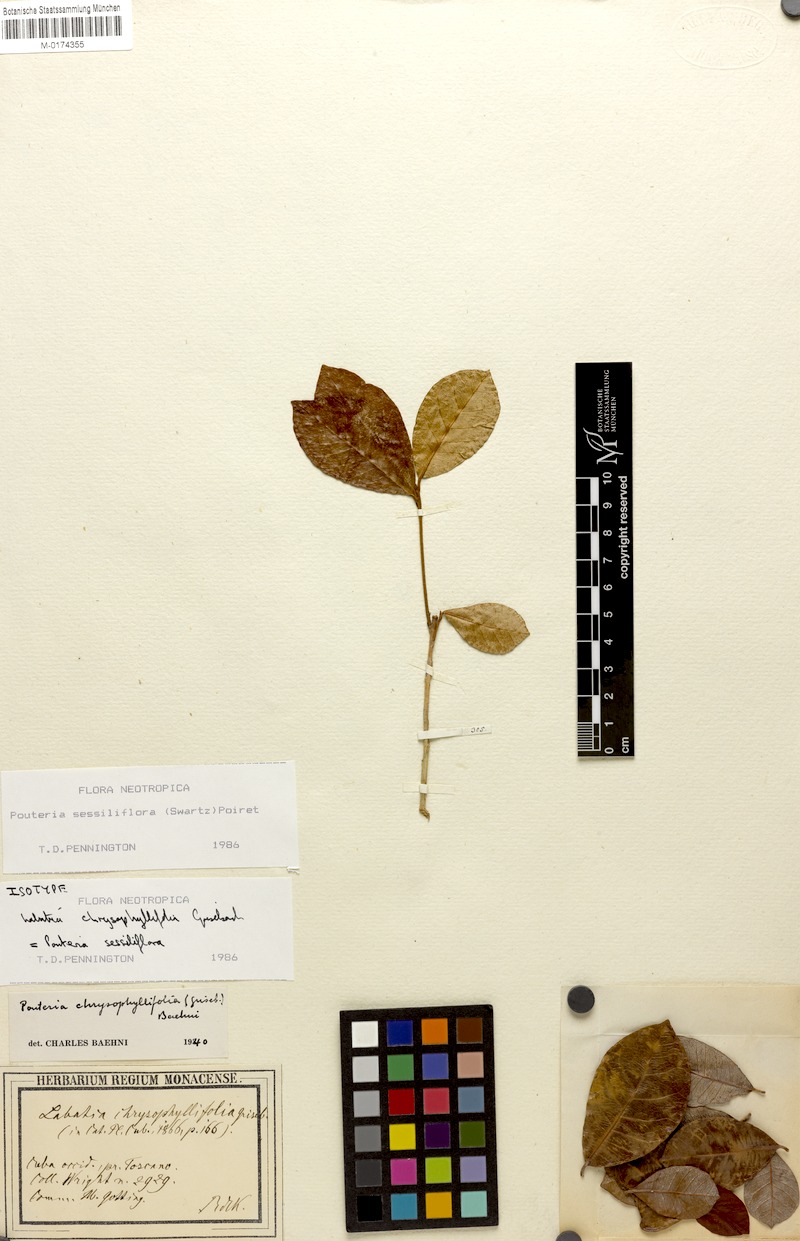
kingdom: Plantae
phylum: Tracheophyta
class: Magnoliopsida
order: Ericales
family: Sapotaceae
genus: Pouteria
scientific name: Pouteria sessiliflora
